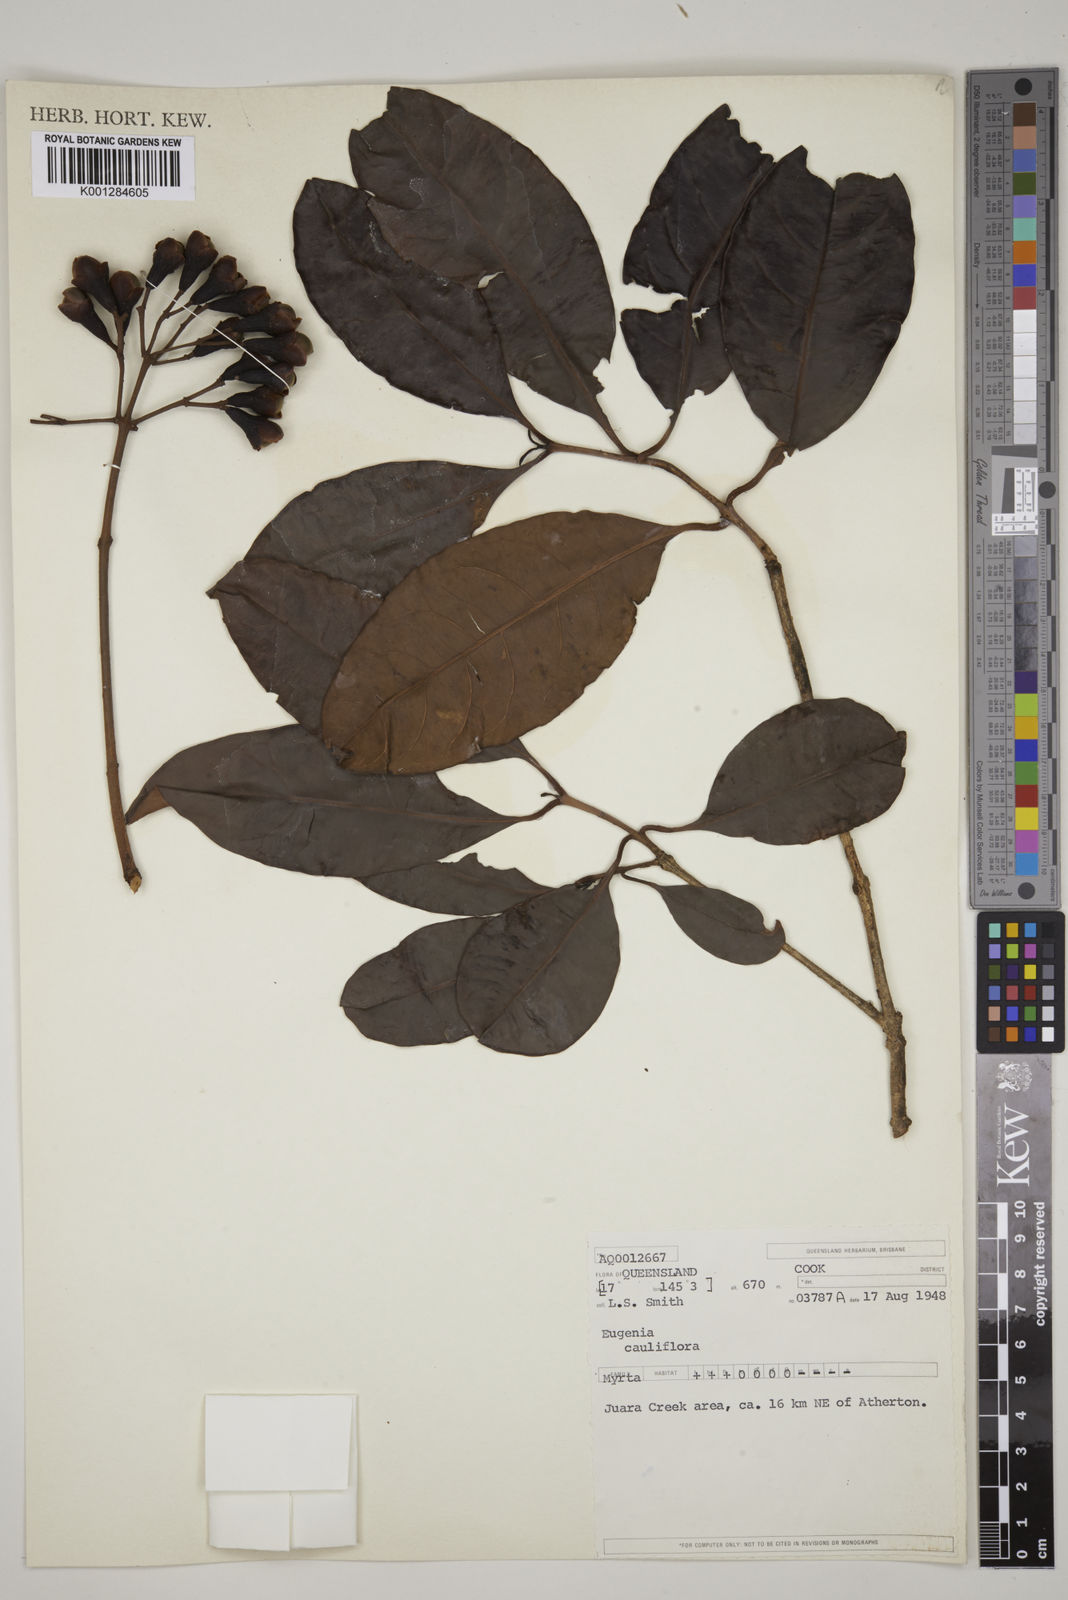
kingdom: Plantae
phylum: Tracheophyta
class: Magnoliopsida
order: Myrtales
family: Myrtaceae
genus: Syzygium
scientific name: Syzygium cormiflorum
